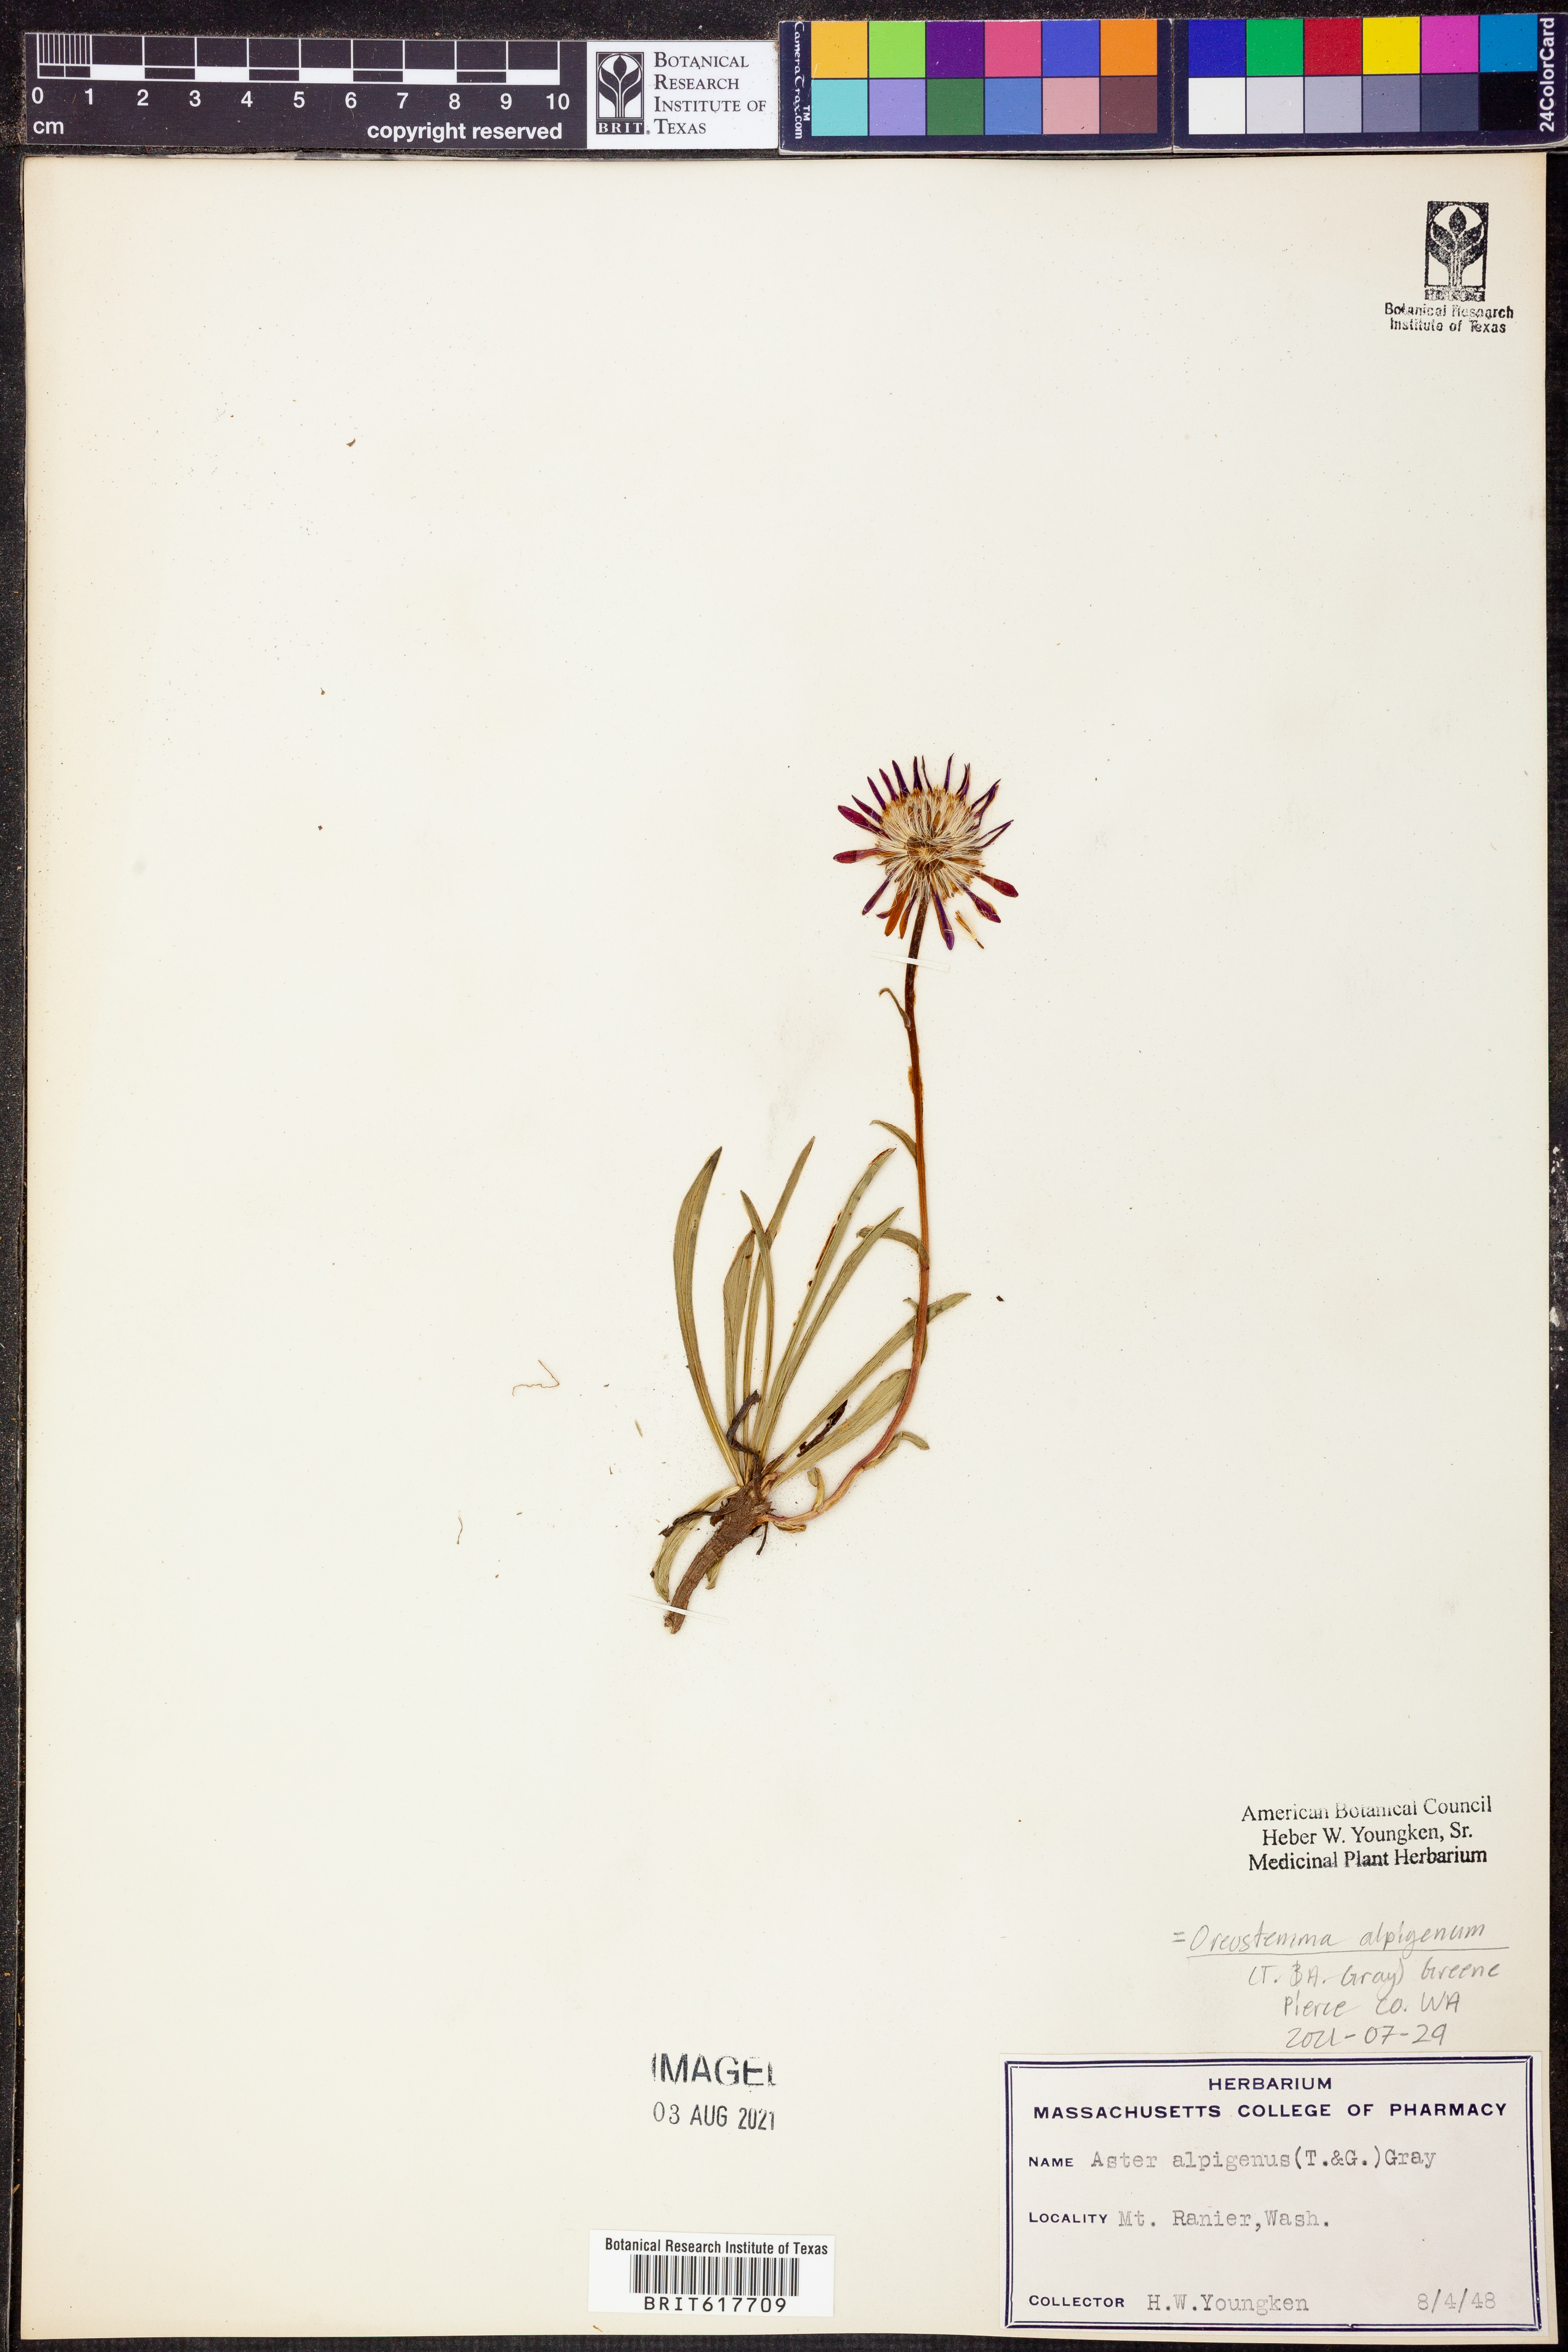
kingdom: Plantae
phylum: Tracheophyta
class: Magnoliopsida
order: Asterales
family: Asteraceae
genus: Oreostemma
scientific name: Oreostemma alpigenum
